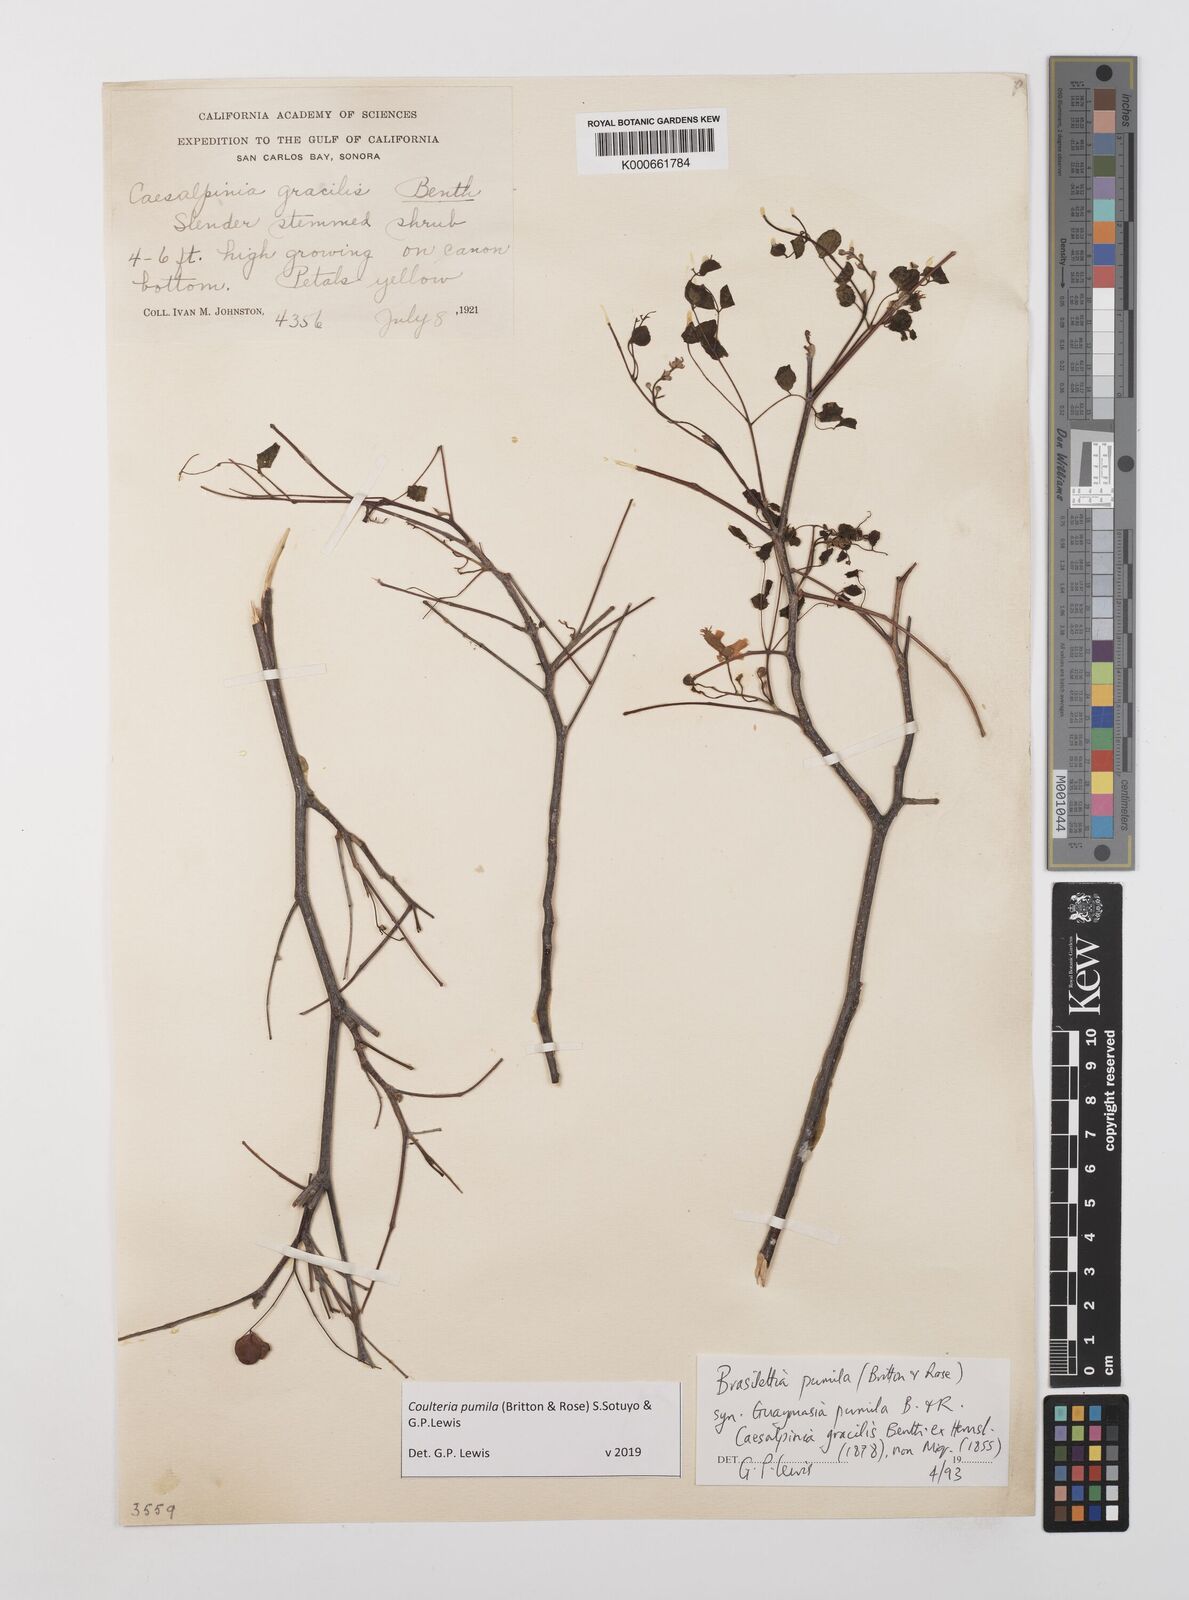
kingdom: Plantae
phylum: Tracheophyta
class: Magnoliopsida
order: Fabales
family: Fabaceae
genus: Coulteria
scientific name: Coulteria
